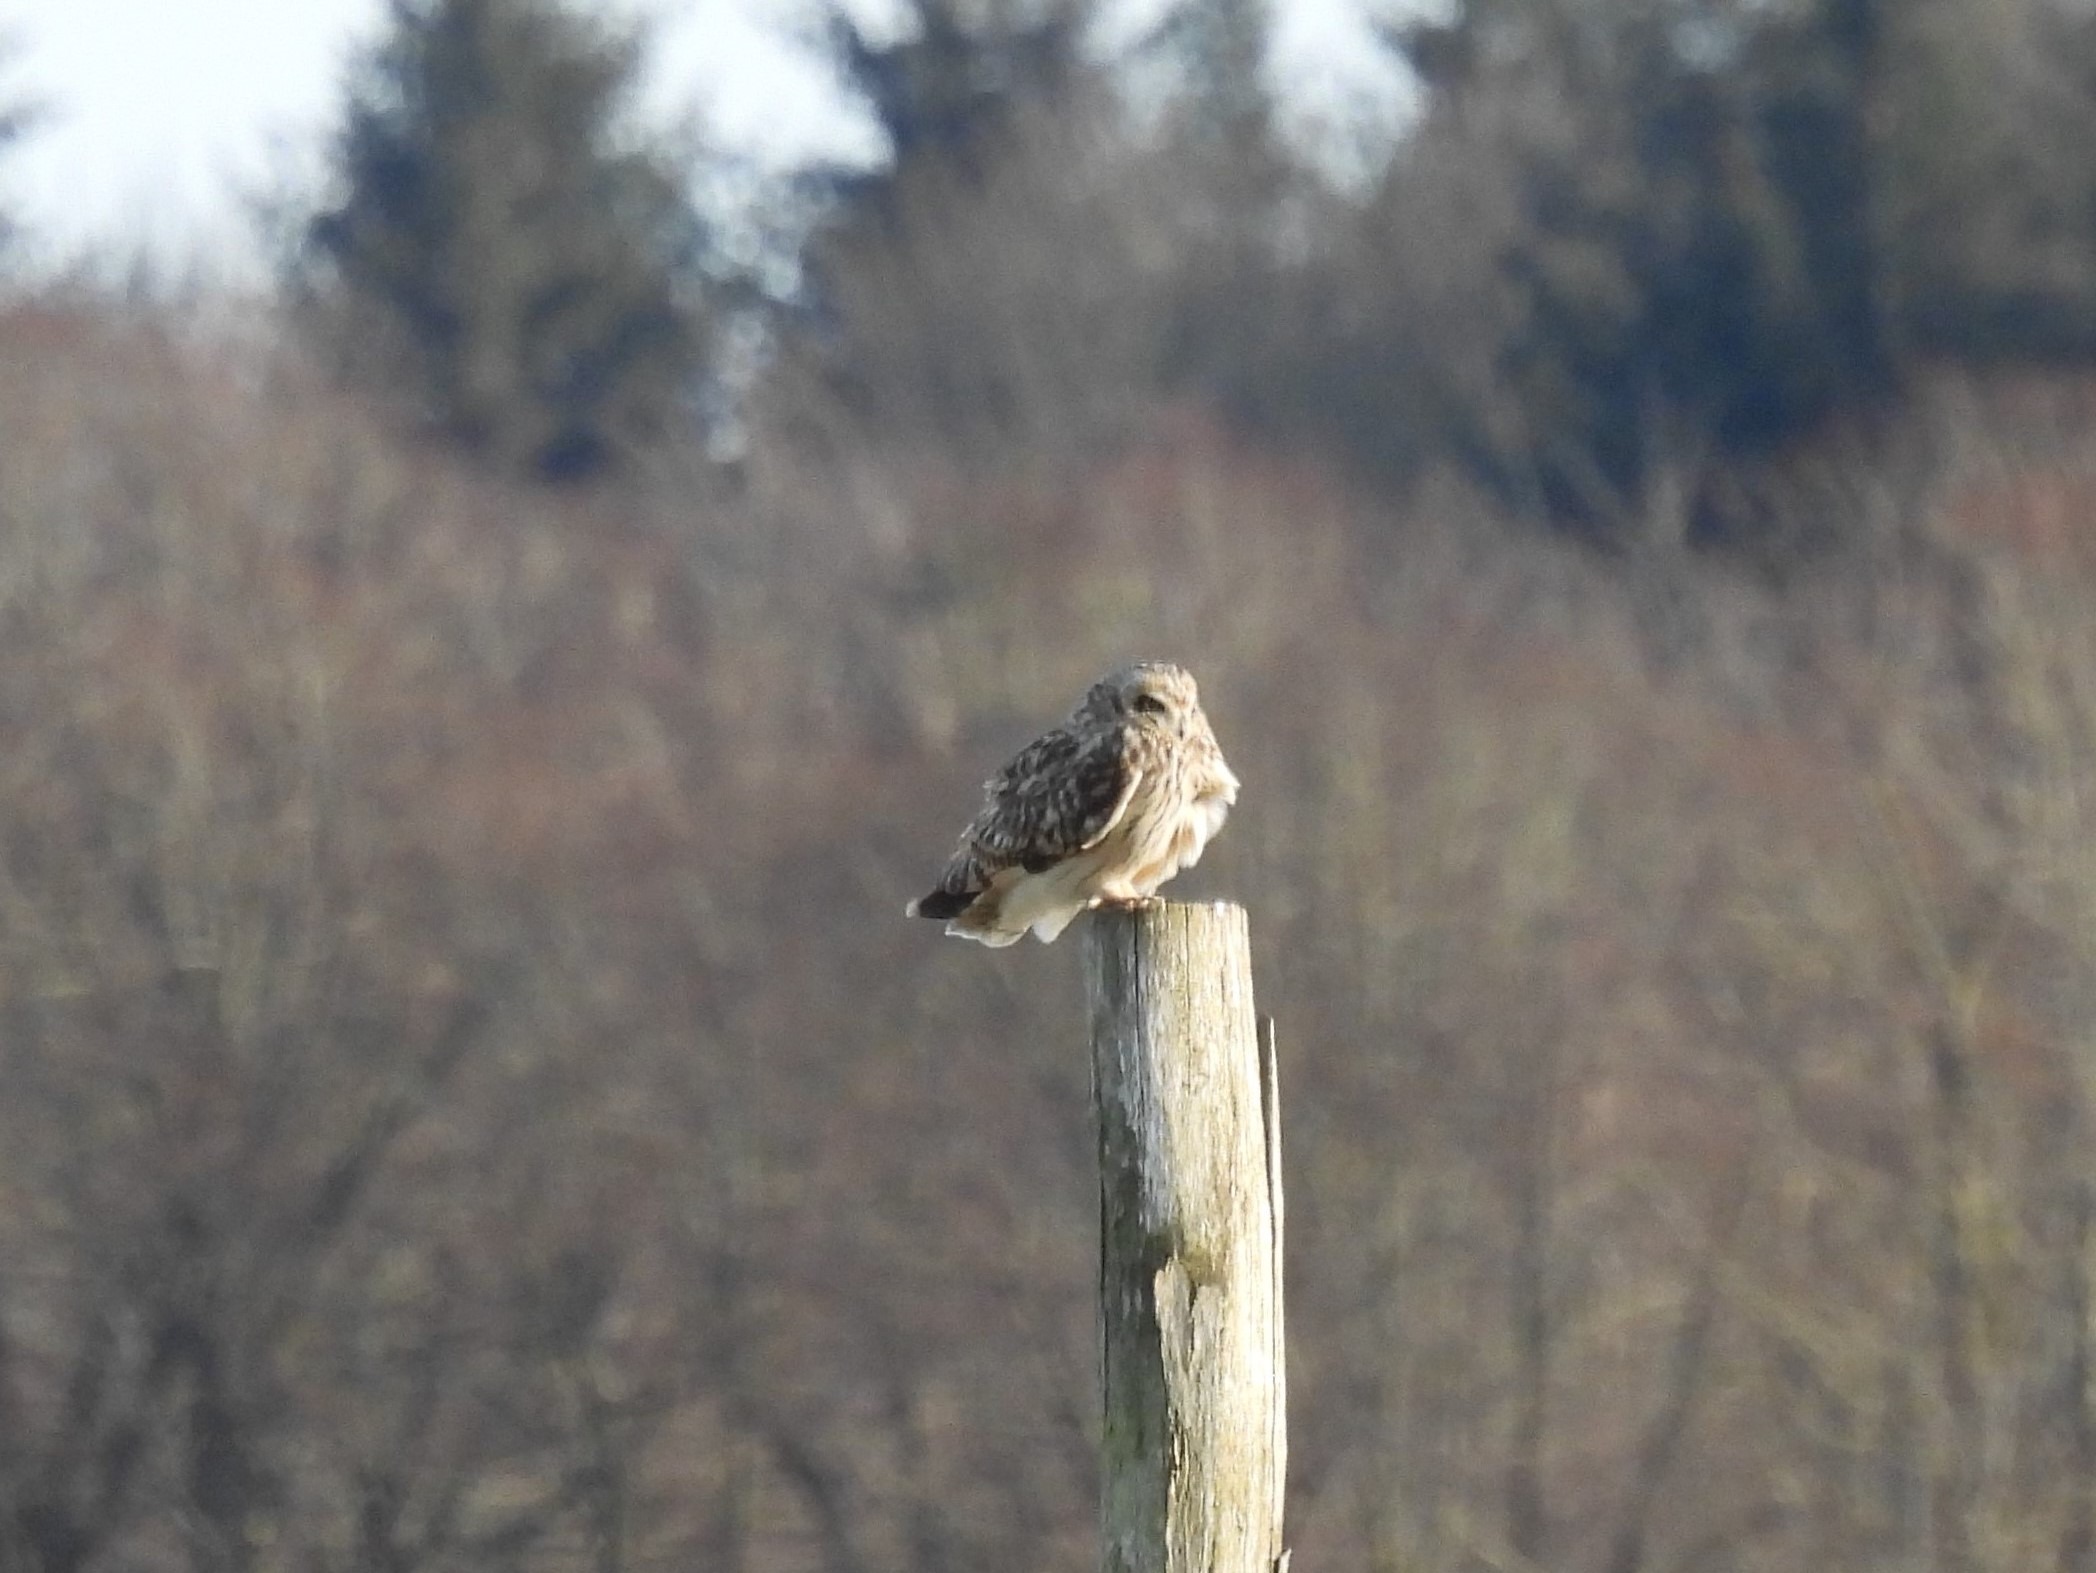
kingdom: Animalia
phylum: Chordata
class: Aves
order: Strigiformes
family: Strigidae
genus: Asio
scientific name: Asio flammeus
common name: Mosehornugle
